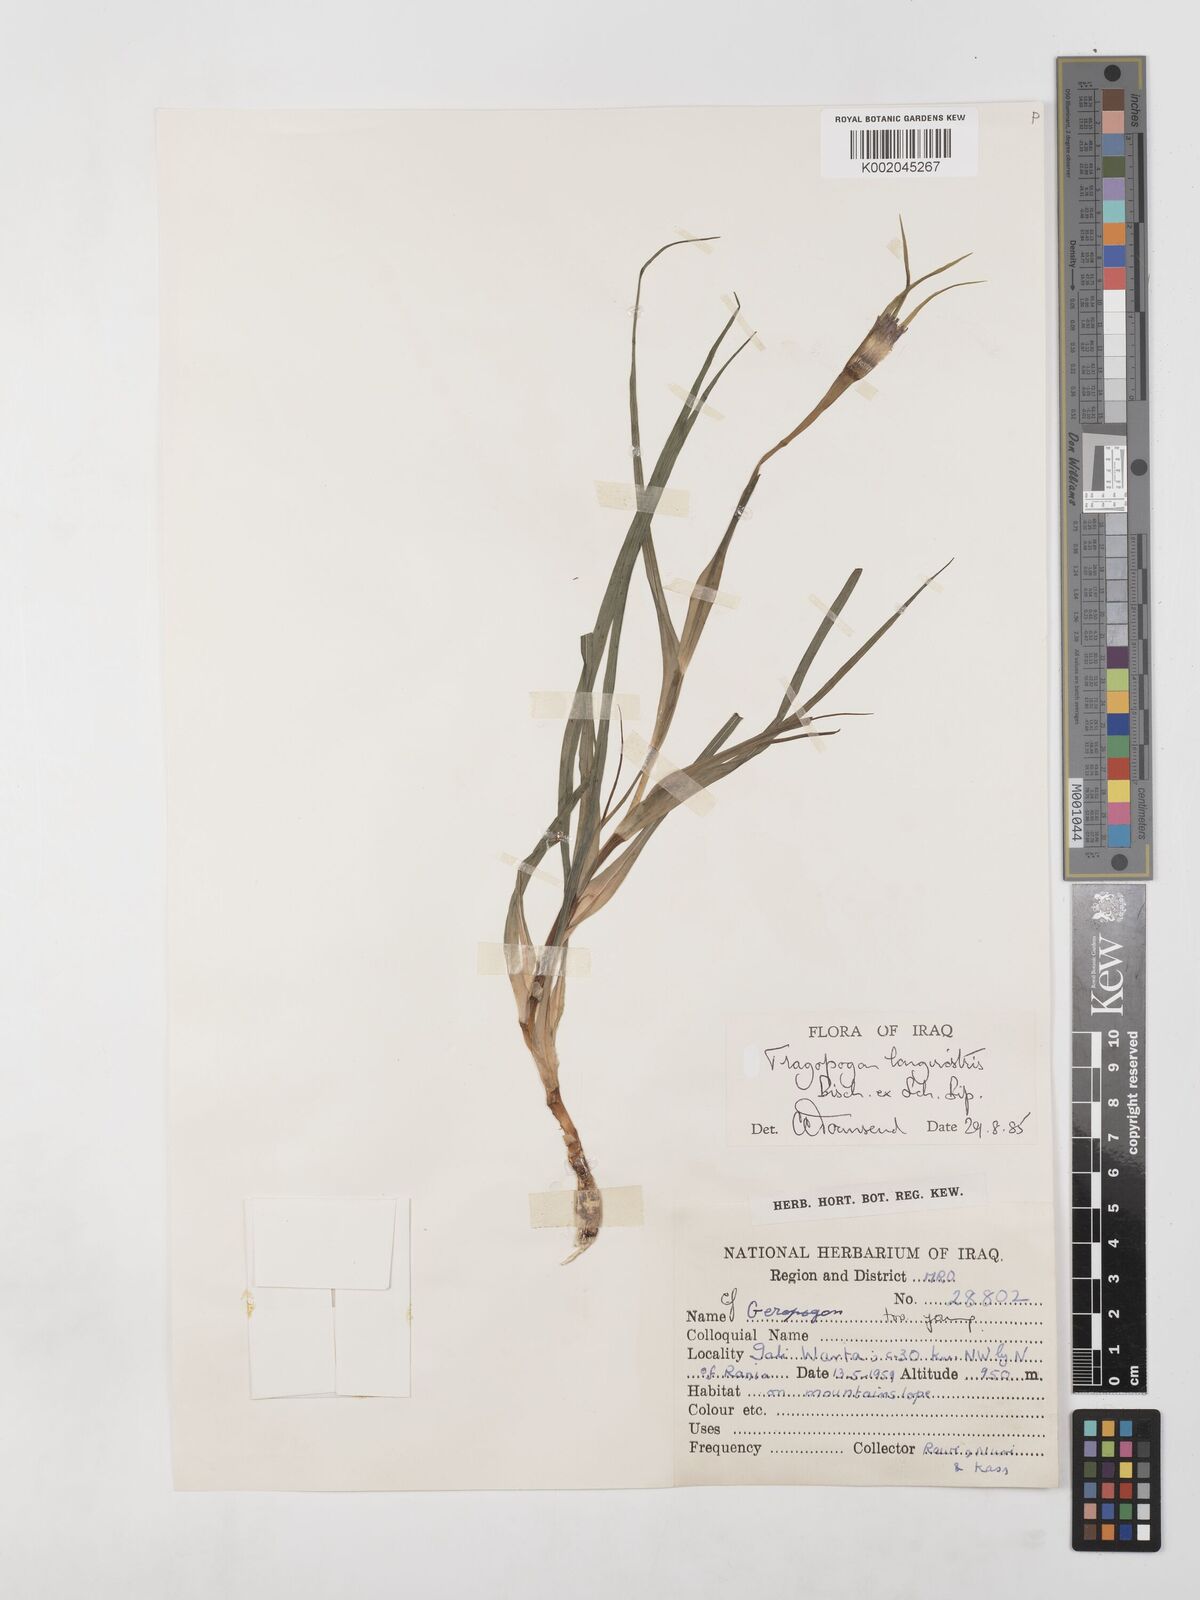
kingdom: Plantae
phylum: Tracheophyta
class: Magnoliopsida
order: Asterales
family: Asteraceae
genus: Tragopogon
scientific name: Tragopogon coelesyriacus
